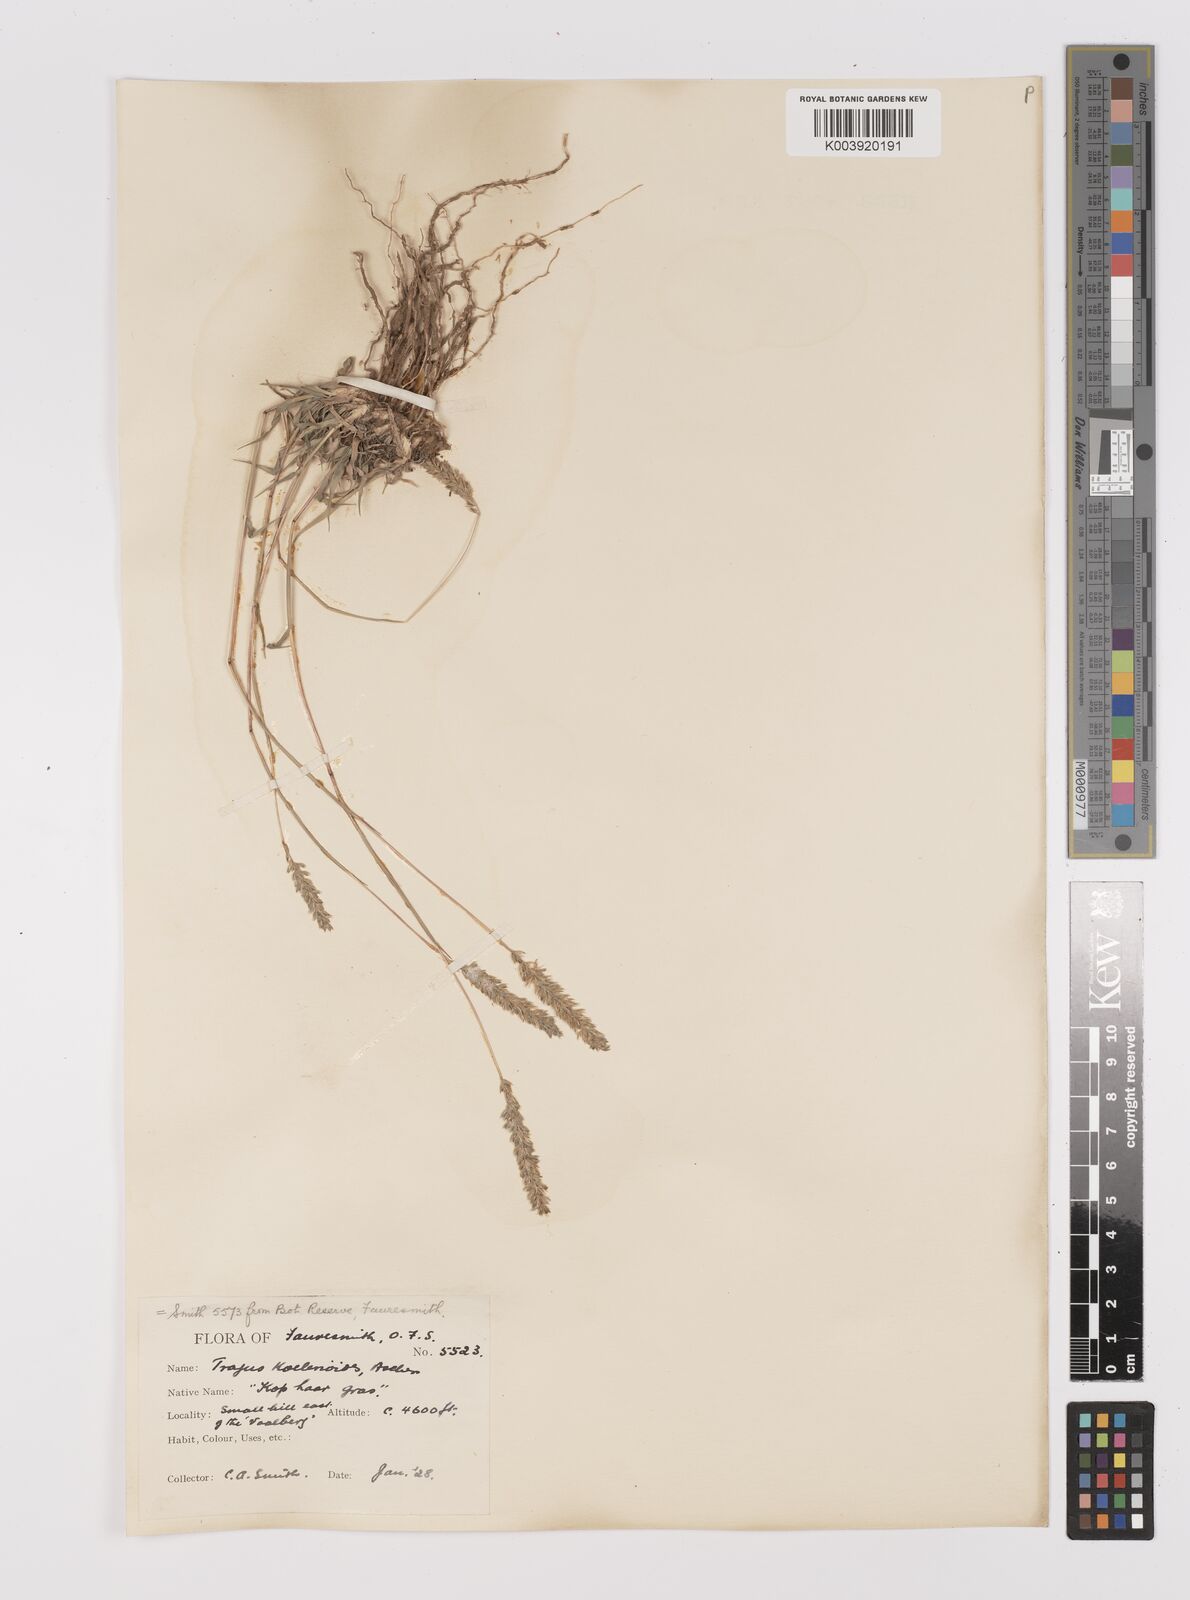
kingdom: Plantae
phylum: Tracheophyta
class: Liliopsida
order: Poales
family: Poaceae
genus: Tragus
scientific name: Tragus koelerioides
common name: Creeping carrot-seed grass
